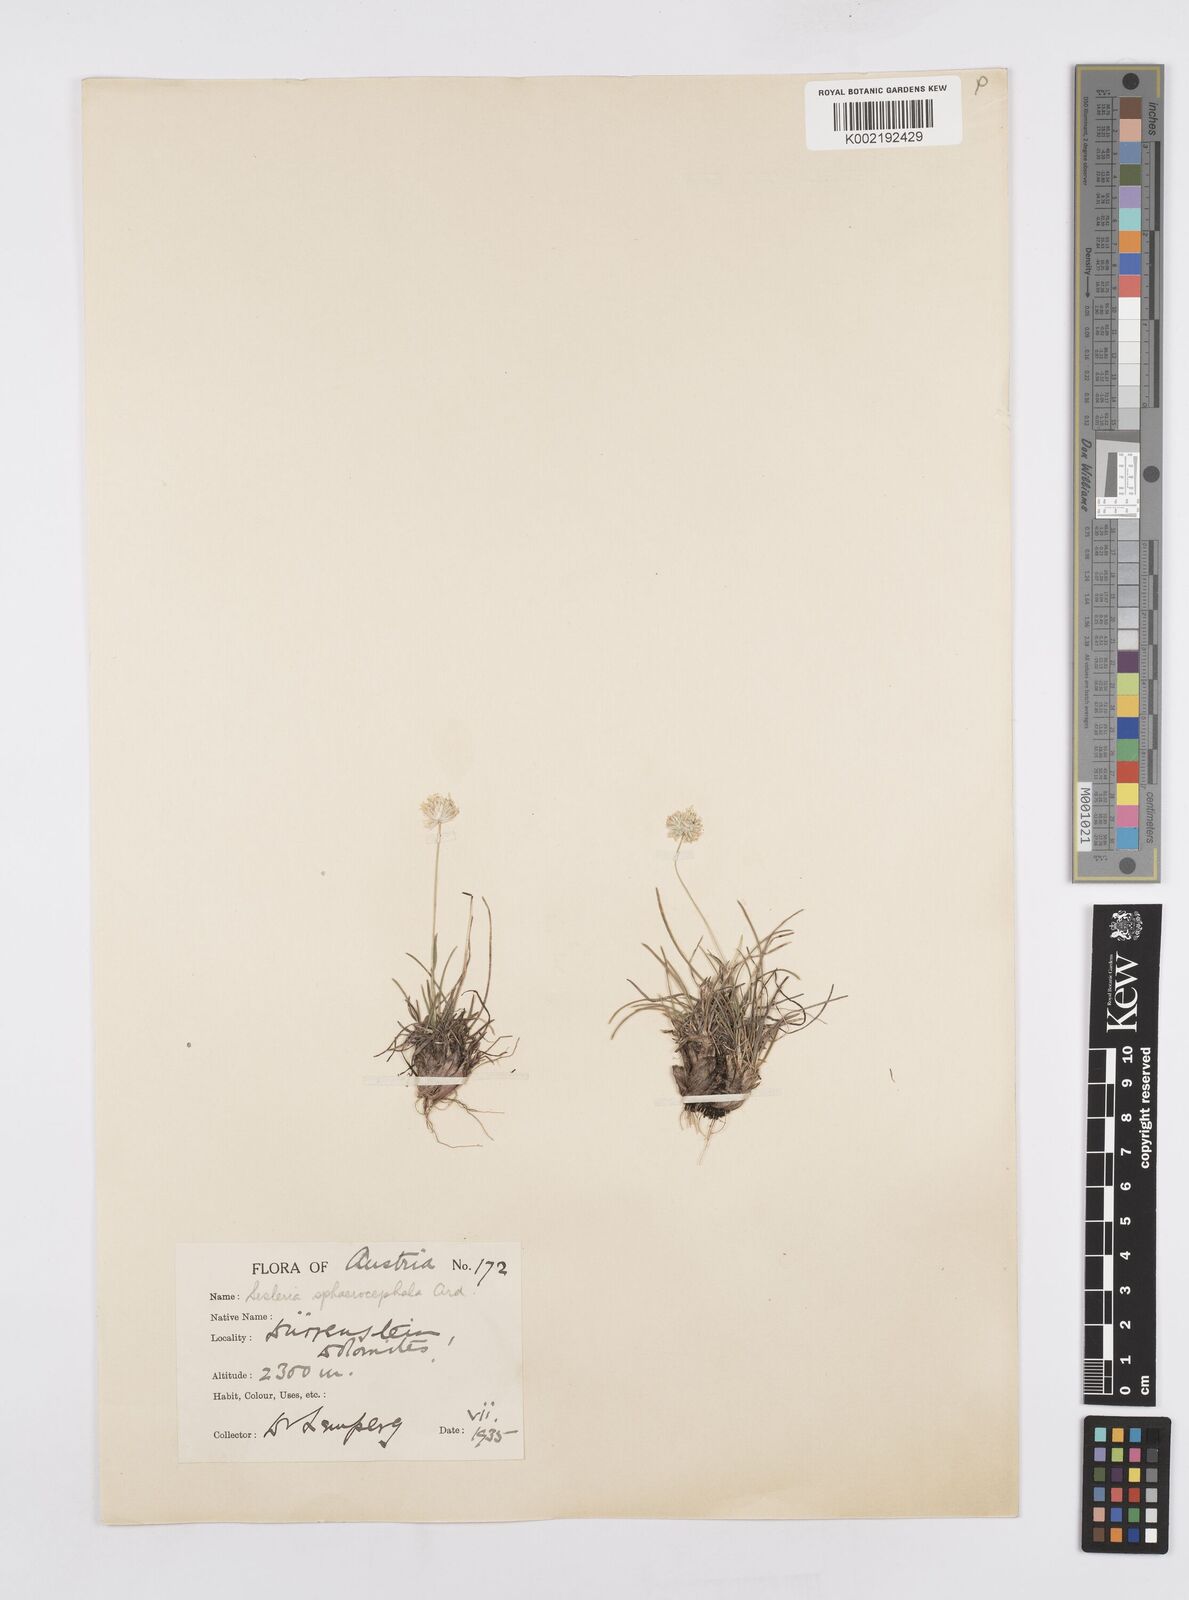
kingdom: Plantae
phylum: Tracheophyta
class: Liliopsida
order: Poales
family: Poaceae
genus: Sesleriella
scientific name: Sesleriella sphaerocephala
